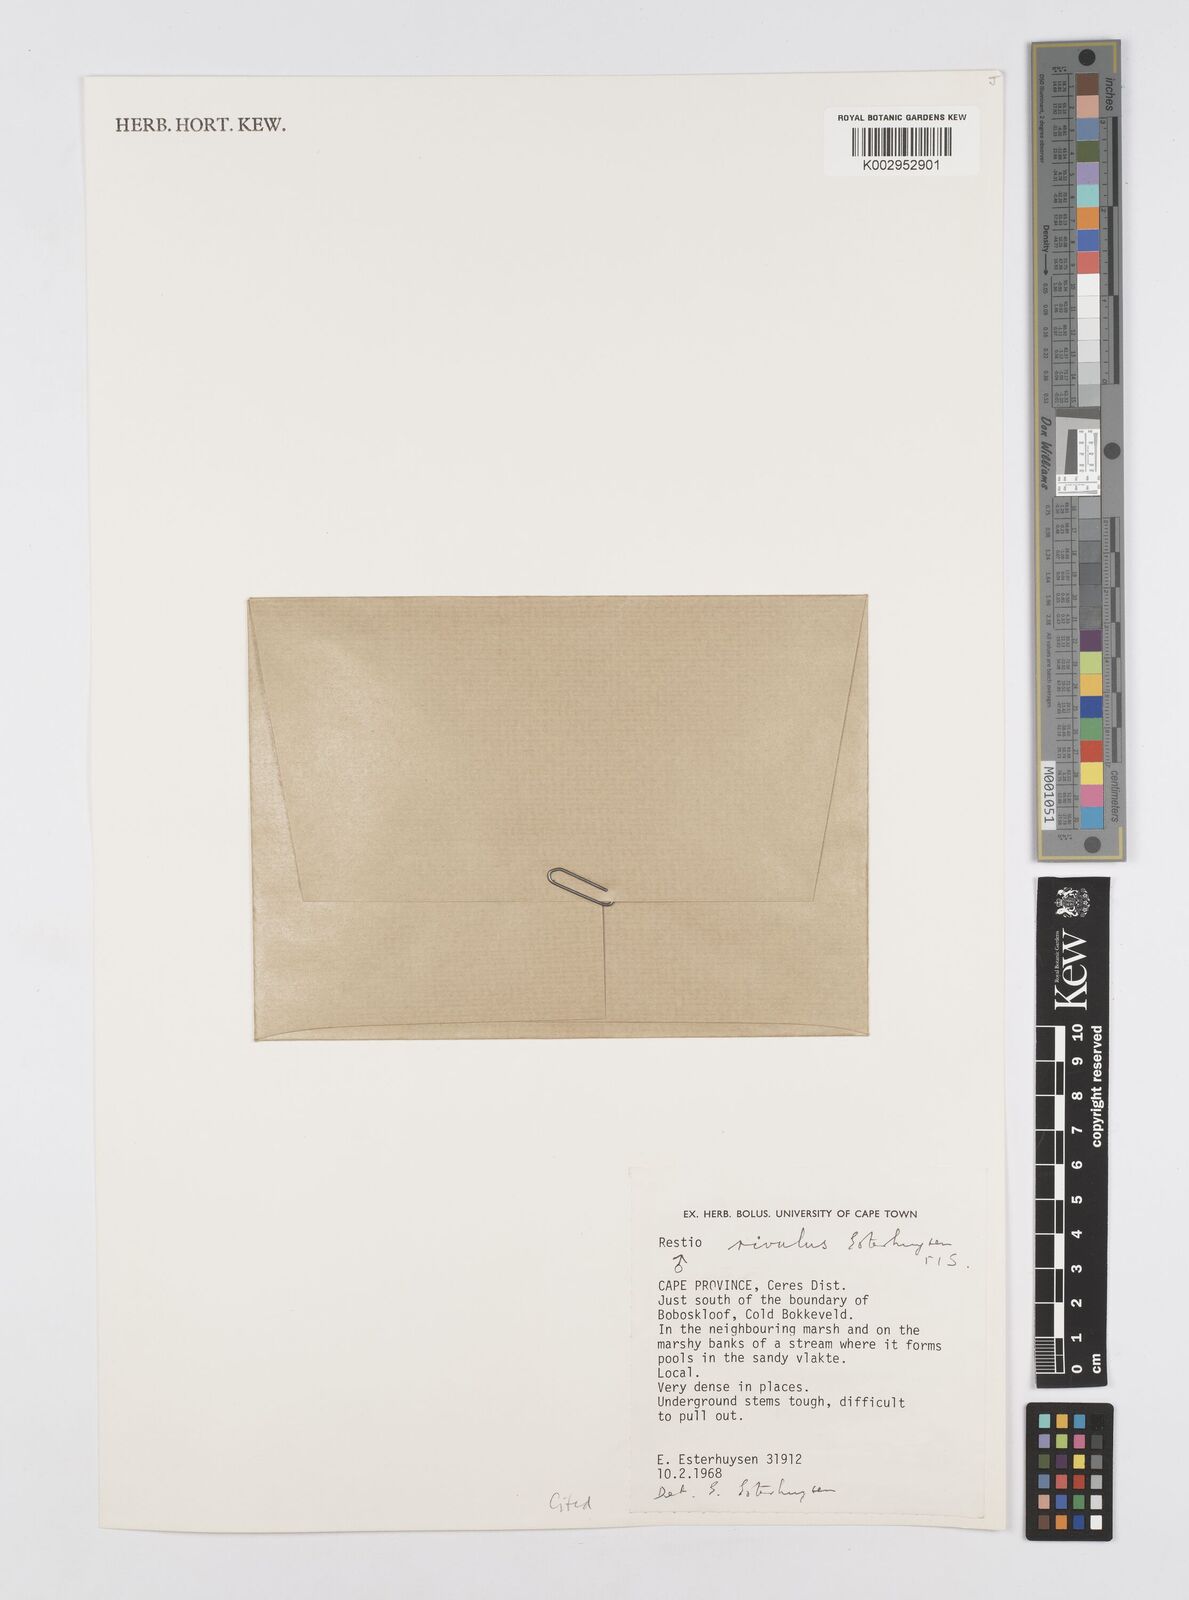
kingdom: Plantae
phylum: Tracheophyta
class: Liliopsida
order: Poales
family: Restionaceae
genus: Restio
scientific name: Restio rivulus
